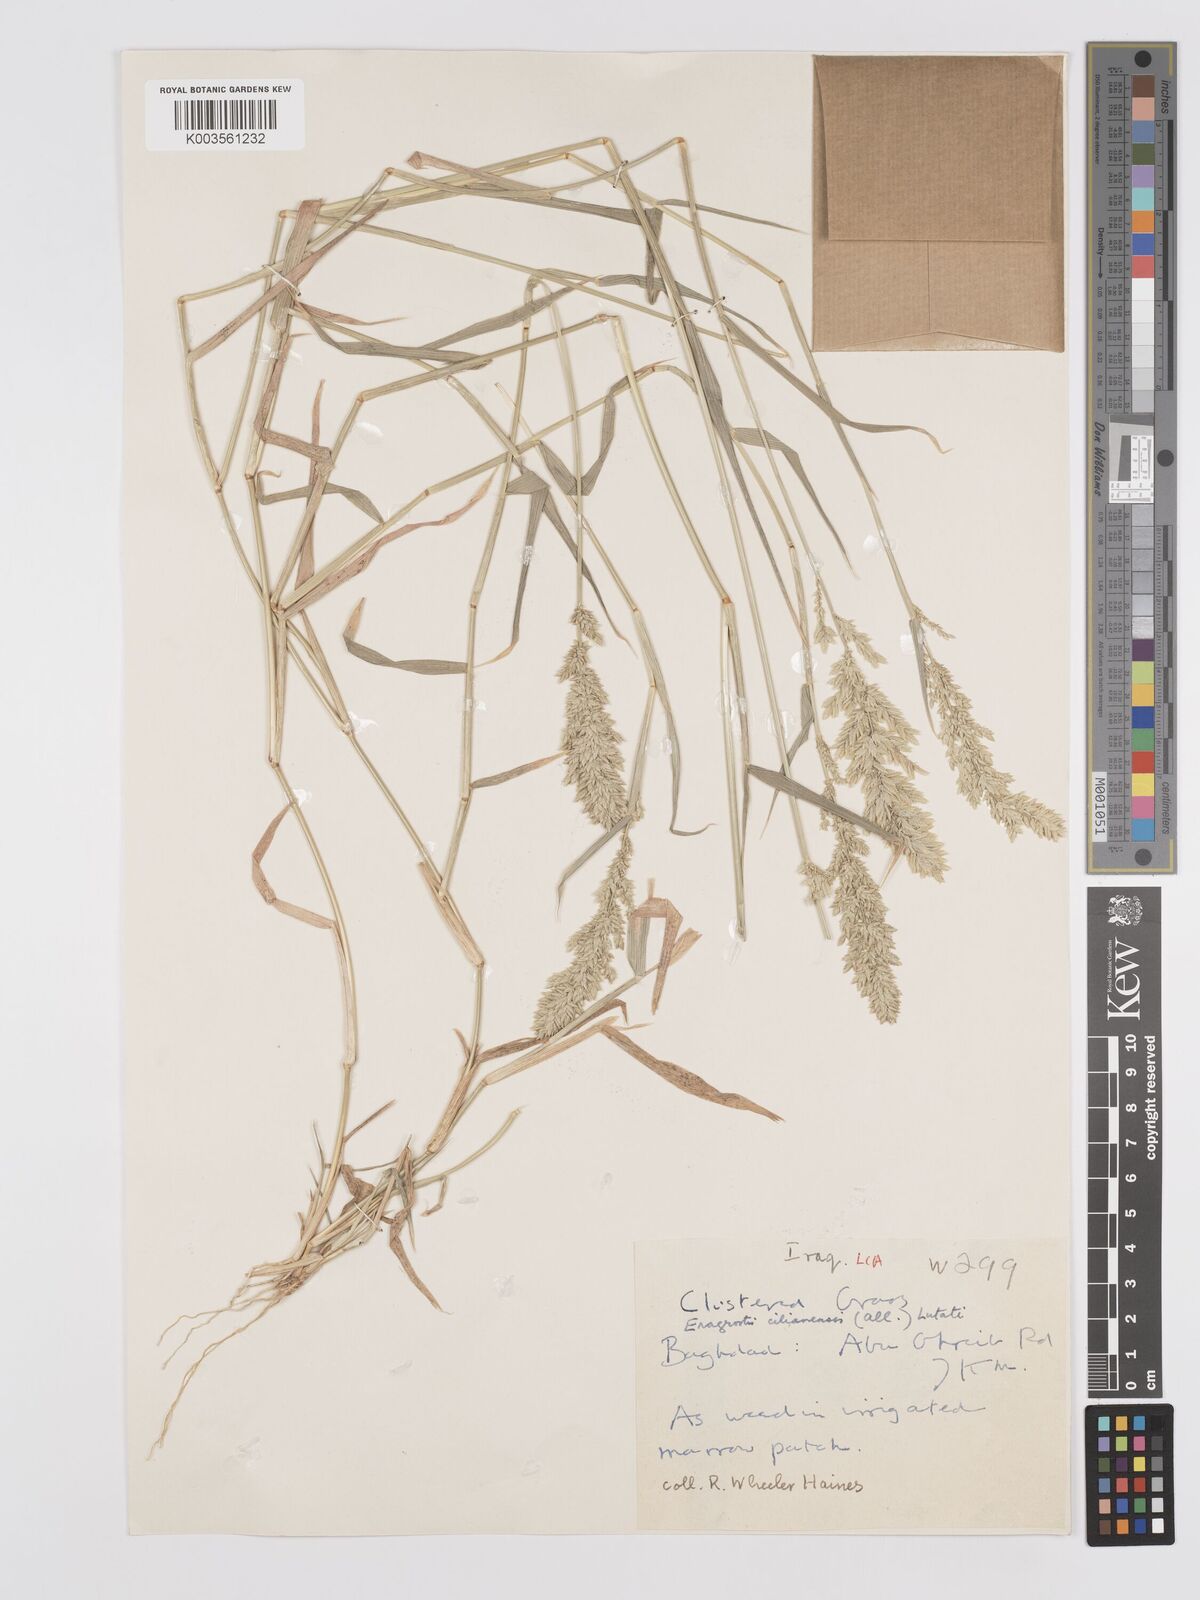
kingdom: Plantae
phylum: Tracheophyta
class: Liliopsida
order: Poales
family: Poaceae
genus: Eragrostis
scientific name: Eragrostis cilianensis
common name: Stinkgrass
